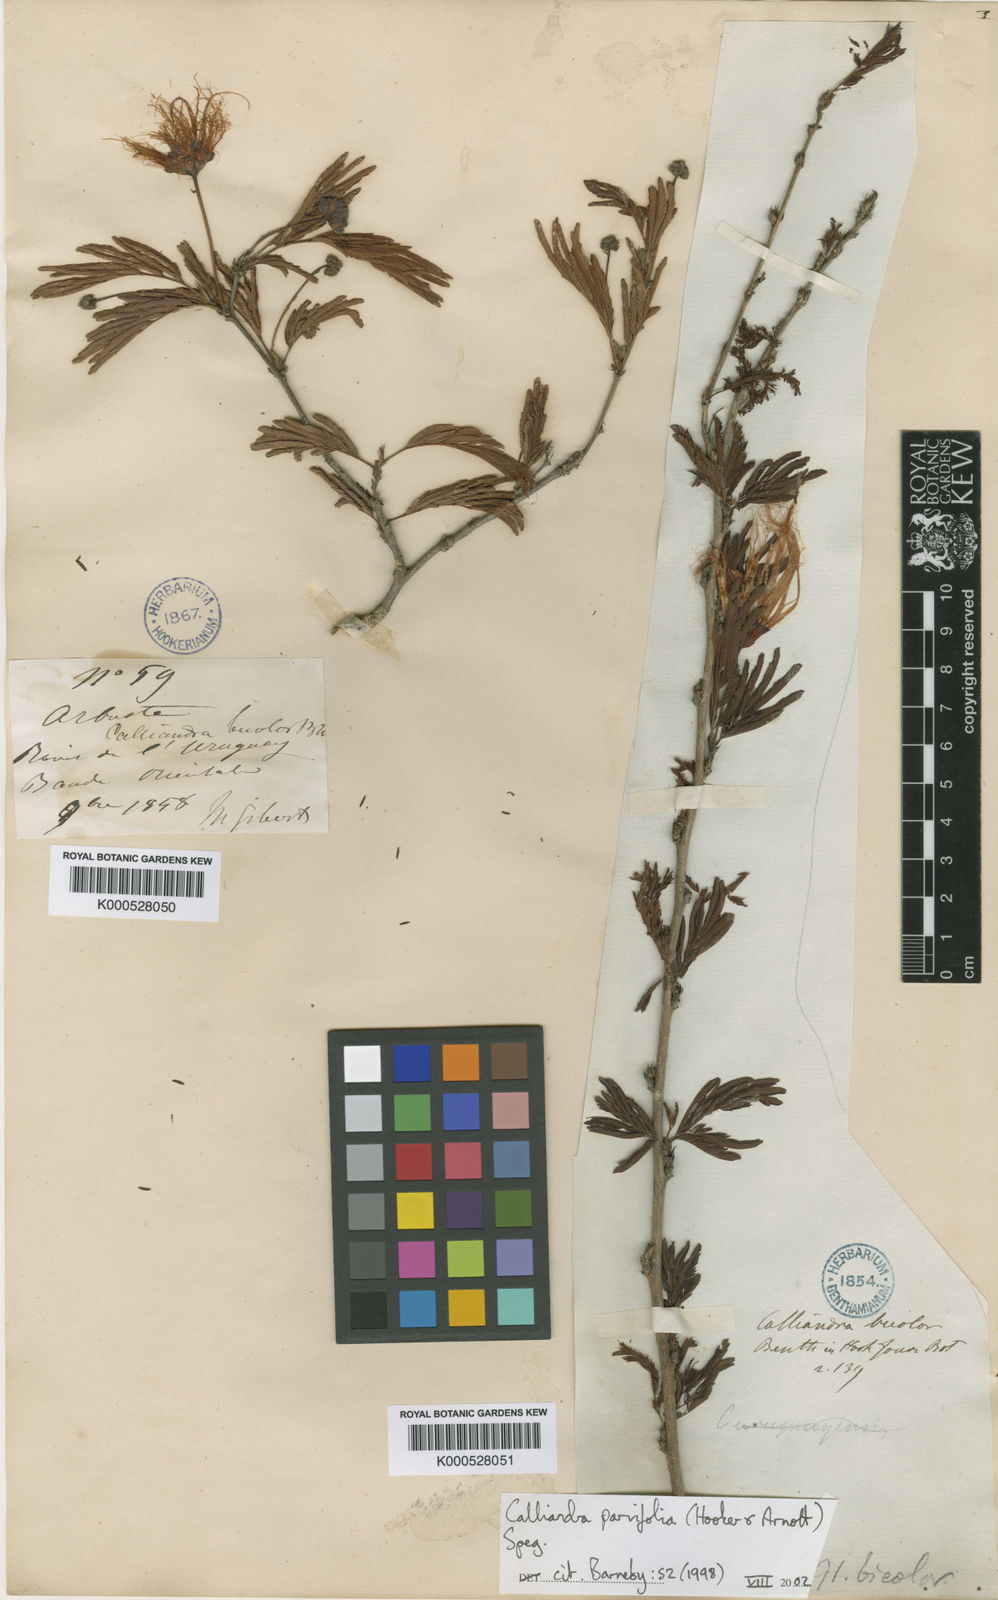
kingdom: Plantae
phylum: Tracheophyta
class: Magnoliopsida
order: Fabales
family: Fabaceae
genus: Calliandra
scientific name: Calliandra parvifolia
